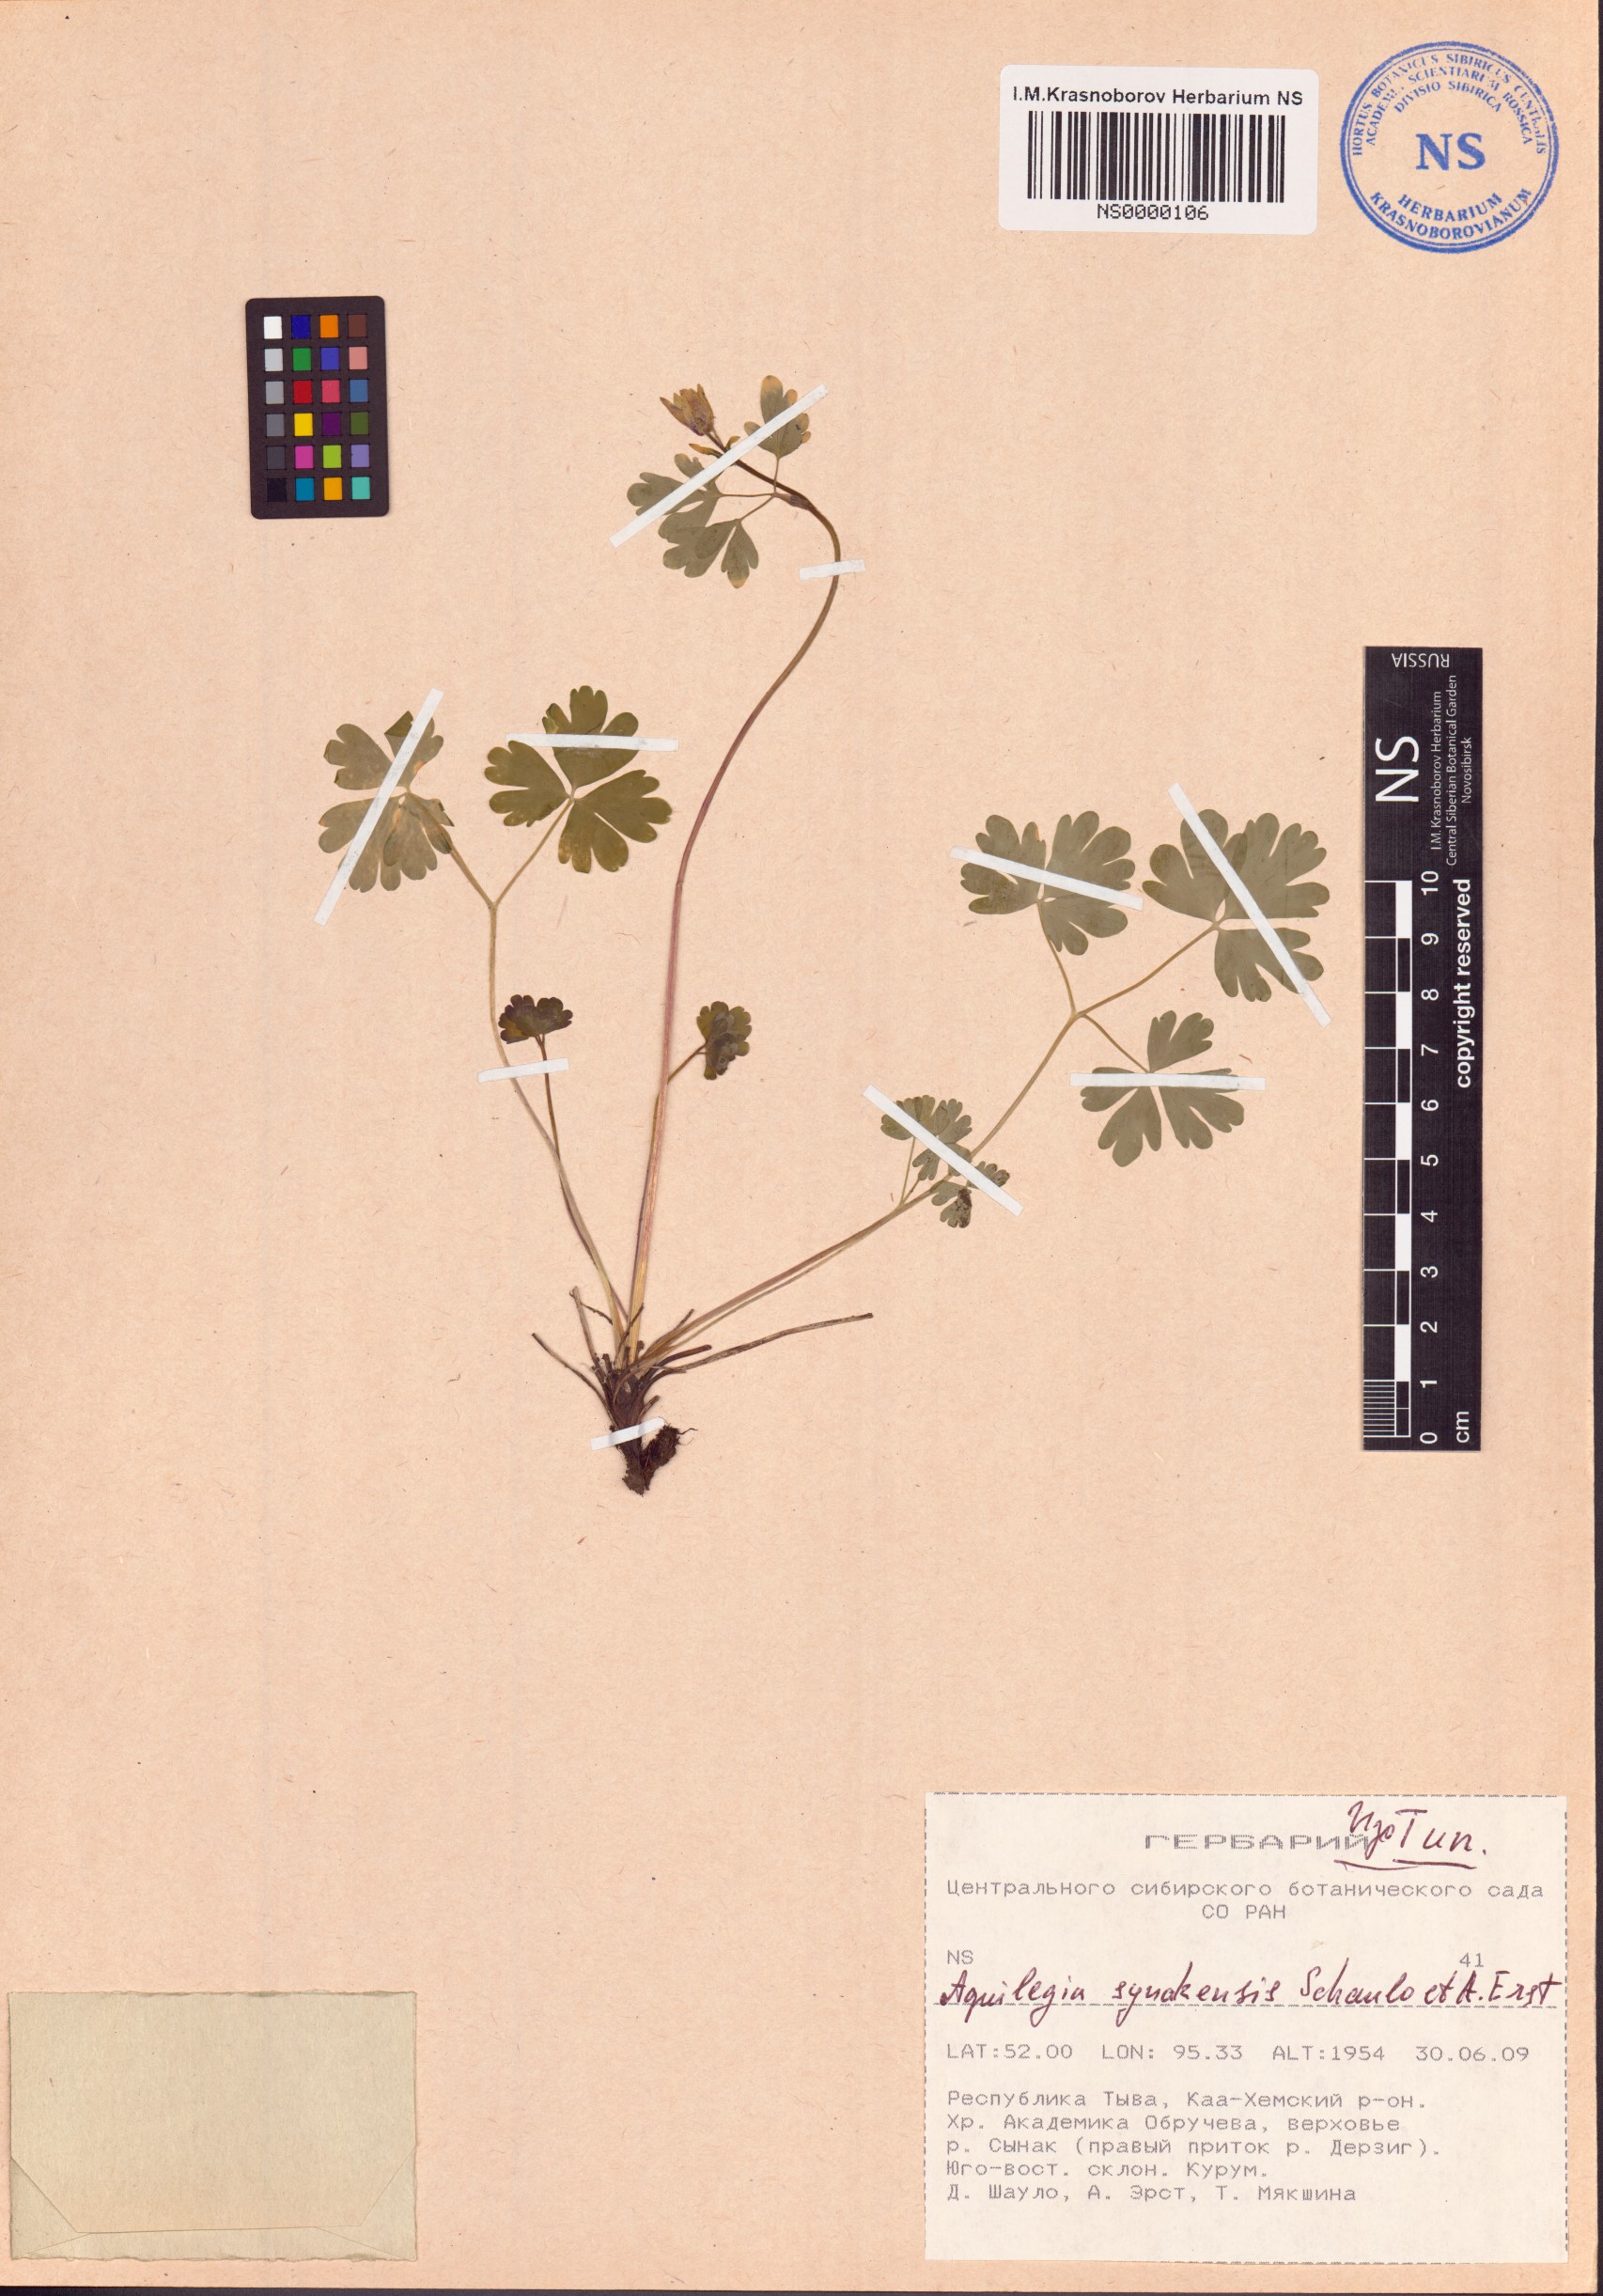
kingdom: Plantae
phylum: Tracheophyta
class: Magnoliopsida
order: Ranunculales
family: Ranunculaceae
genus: Aquilegia
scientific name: Aquilegia synakensis
